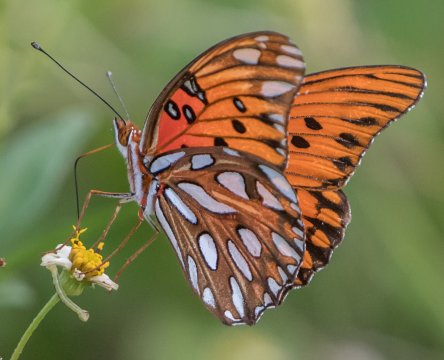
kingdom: Animalia
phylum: Arthropoda
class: Insecta
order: Lepidoptera
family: Nymphalidae
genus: Dione
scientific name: Dione vanillae
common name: Gulf Fritillary
